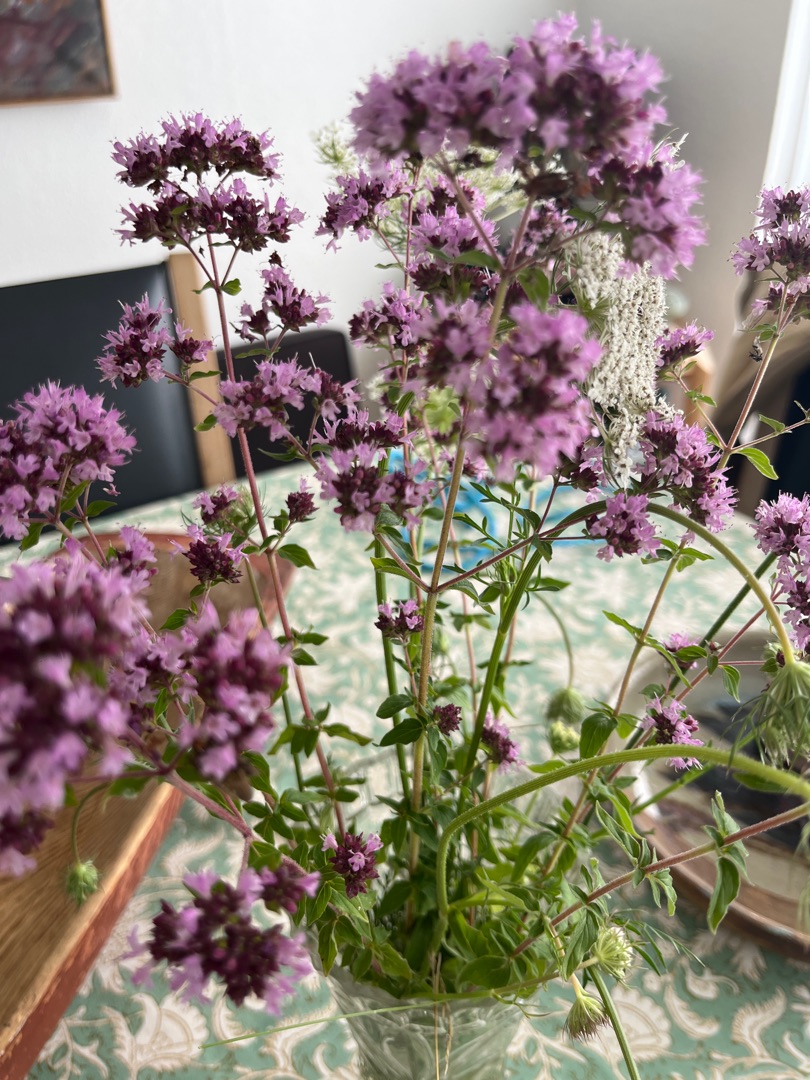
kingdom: Plantae
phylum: Tracheophyta
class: Magnoliopsida
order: Lamiales
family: Lamiaceae
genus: Origanum
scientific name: Origanum vulgare
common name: Merian
